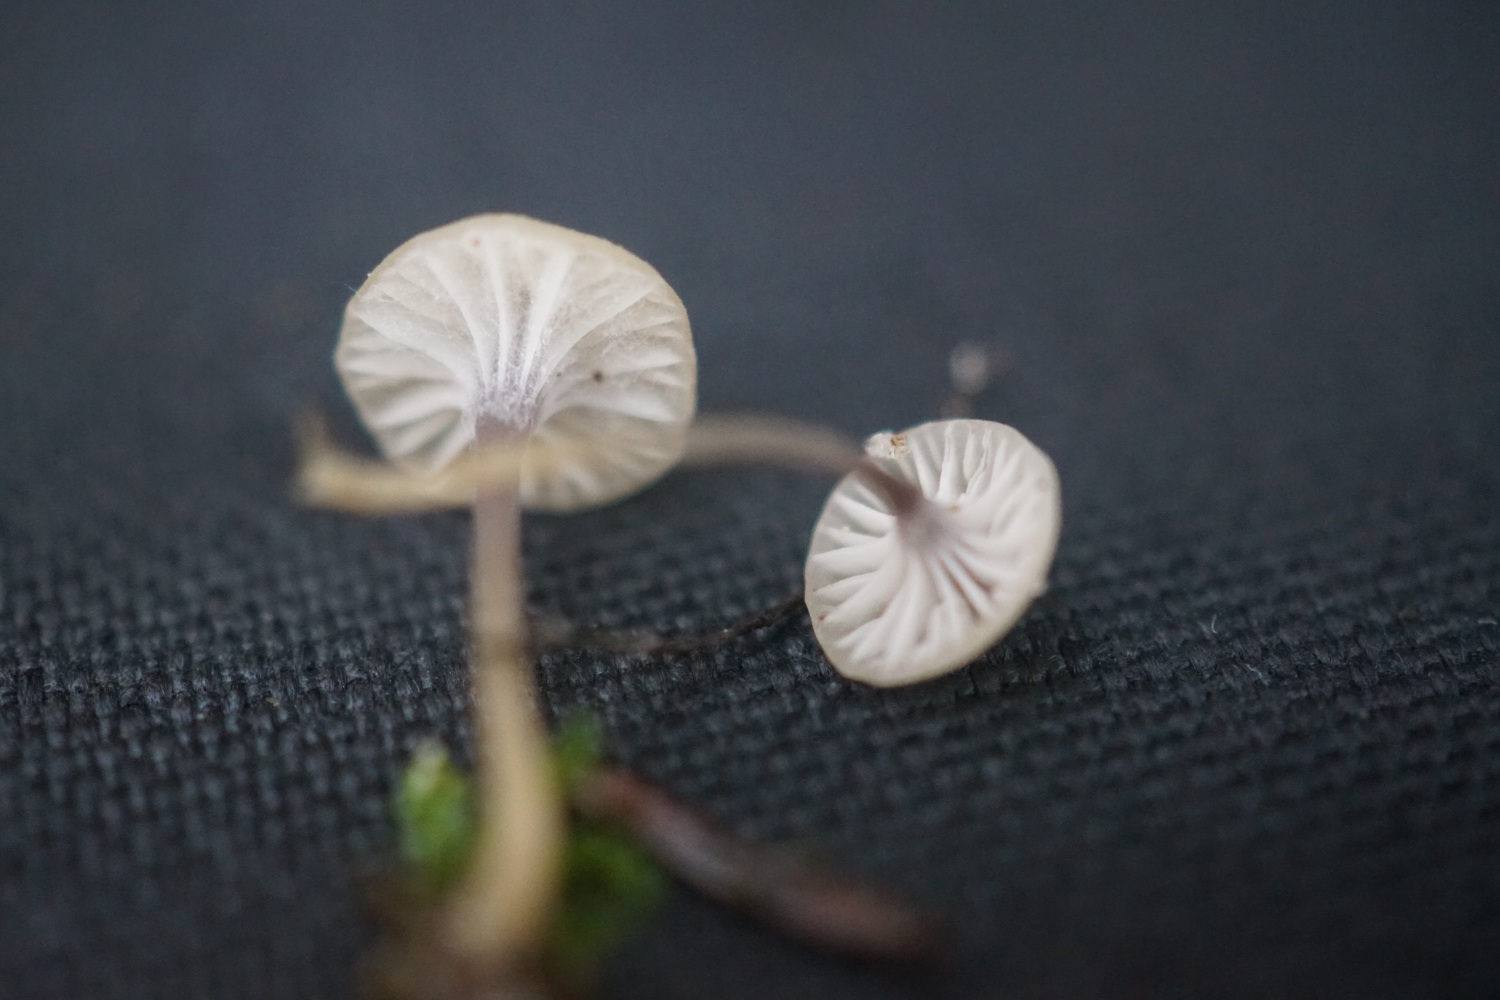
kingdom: Fungi
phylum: Basidiomycota
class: Agaricomycetes
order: Hymenochaetales
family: Rickenellaceae
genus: Rickenella
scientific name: Rickenella swartzii
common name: finstokket mosnavlehat
